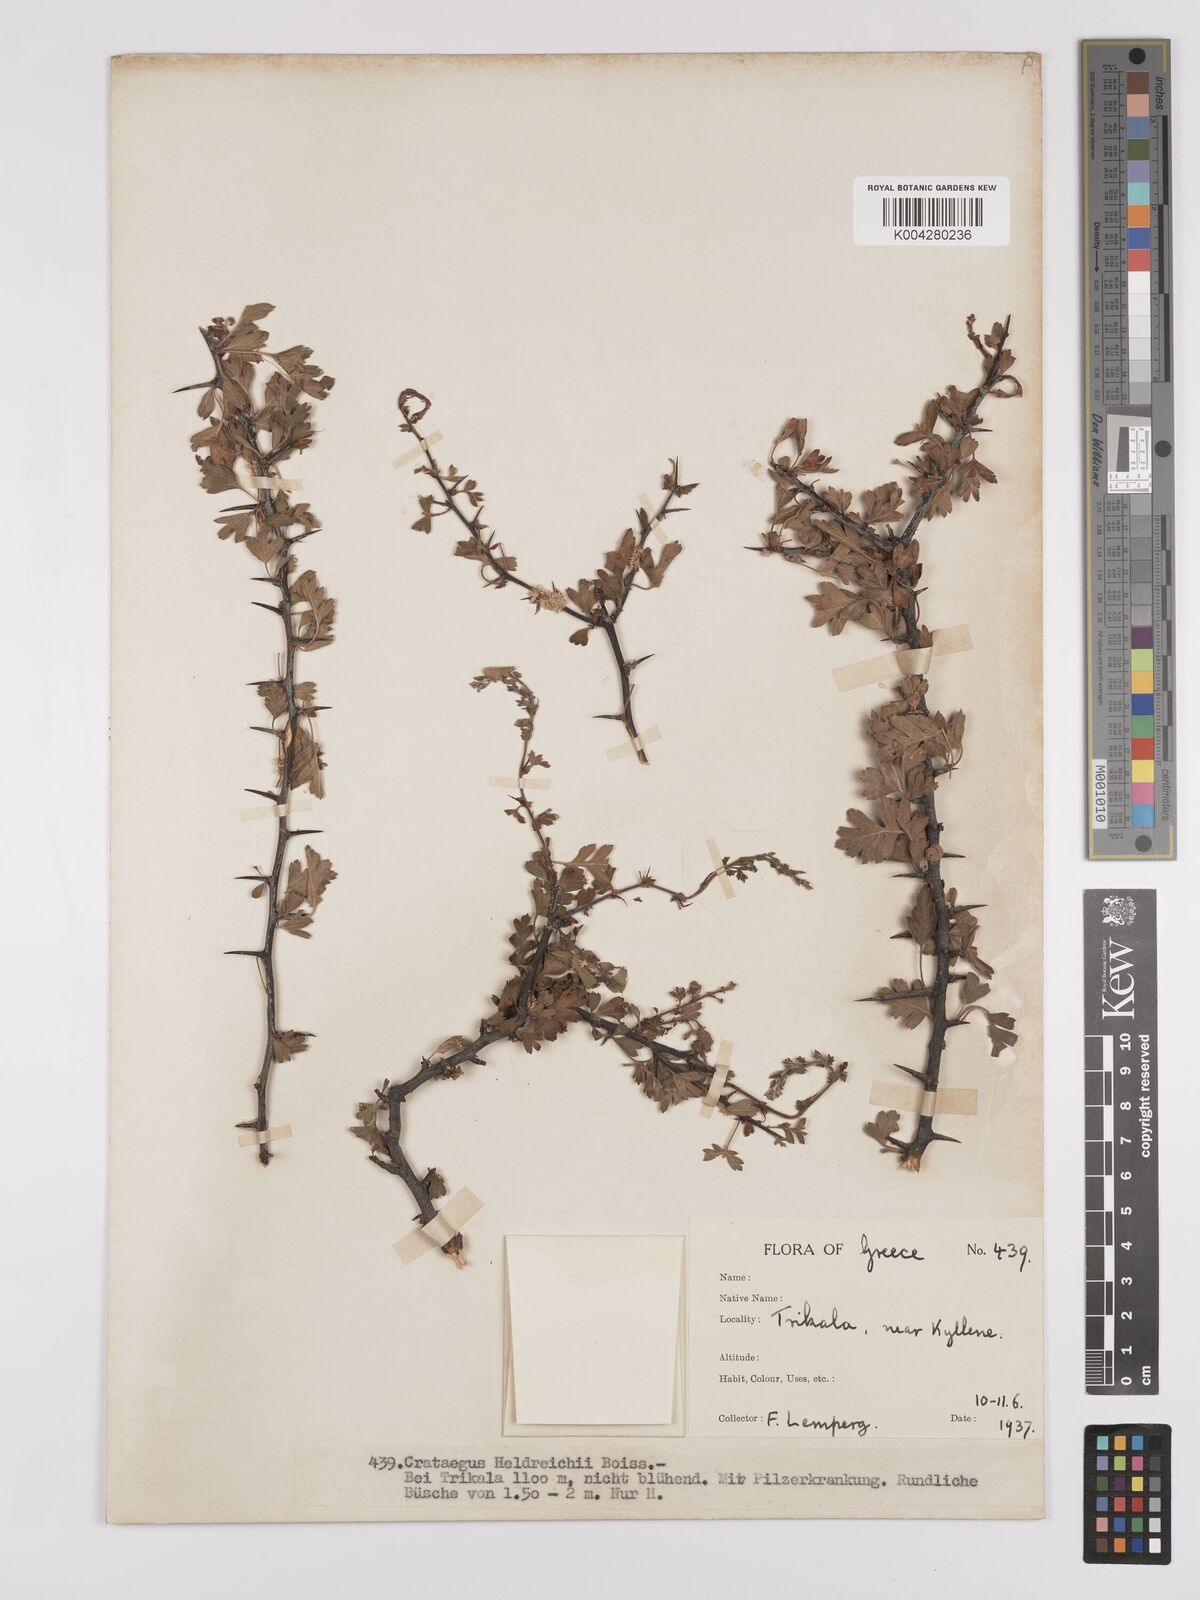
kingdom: Plantae
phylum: Tracheophyta
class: Magnoliopsida
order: Rosales
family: Rosaceae
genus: Crataegus
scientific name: Crataegus heldreichii
